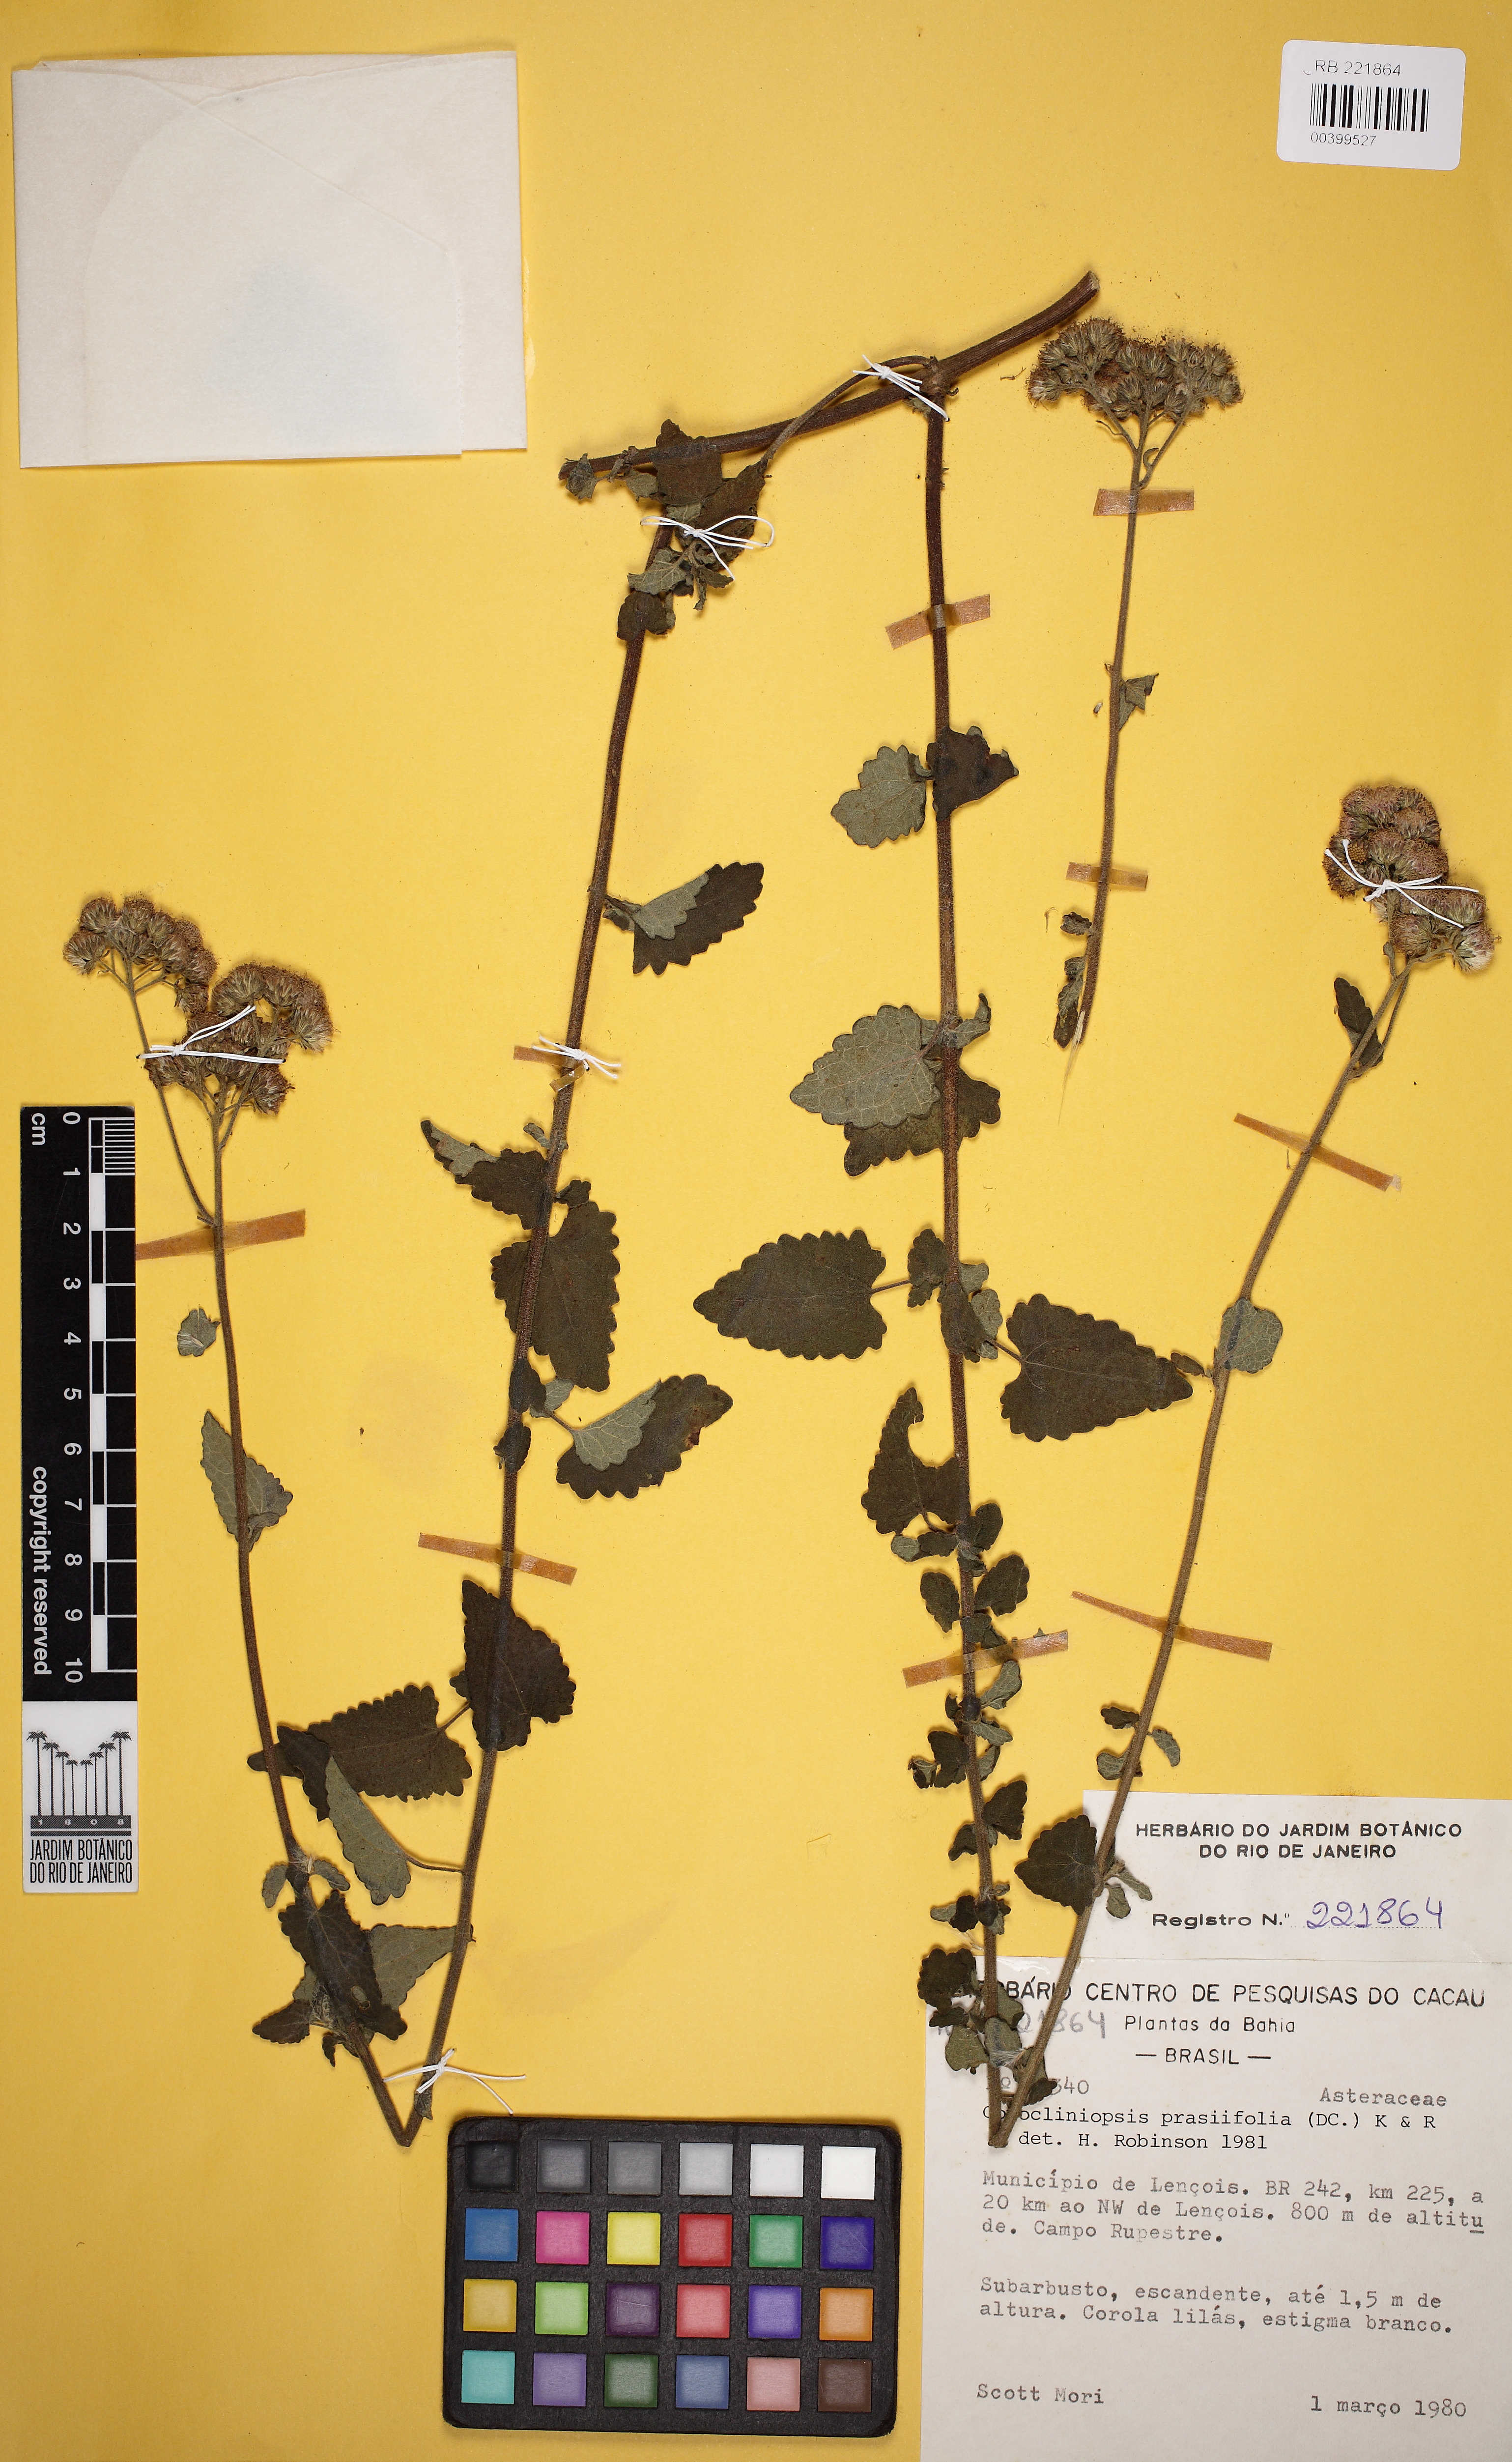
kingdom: Plantae
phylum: Tracheophyta
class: Magnoliopsida
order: Asterales
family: Asteraceae
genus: Conocliniopsis
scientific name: Conocliniopsis grossedentata
